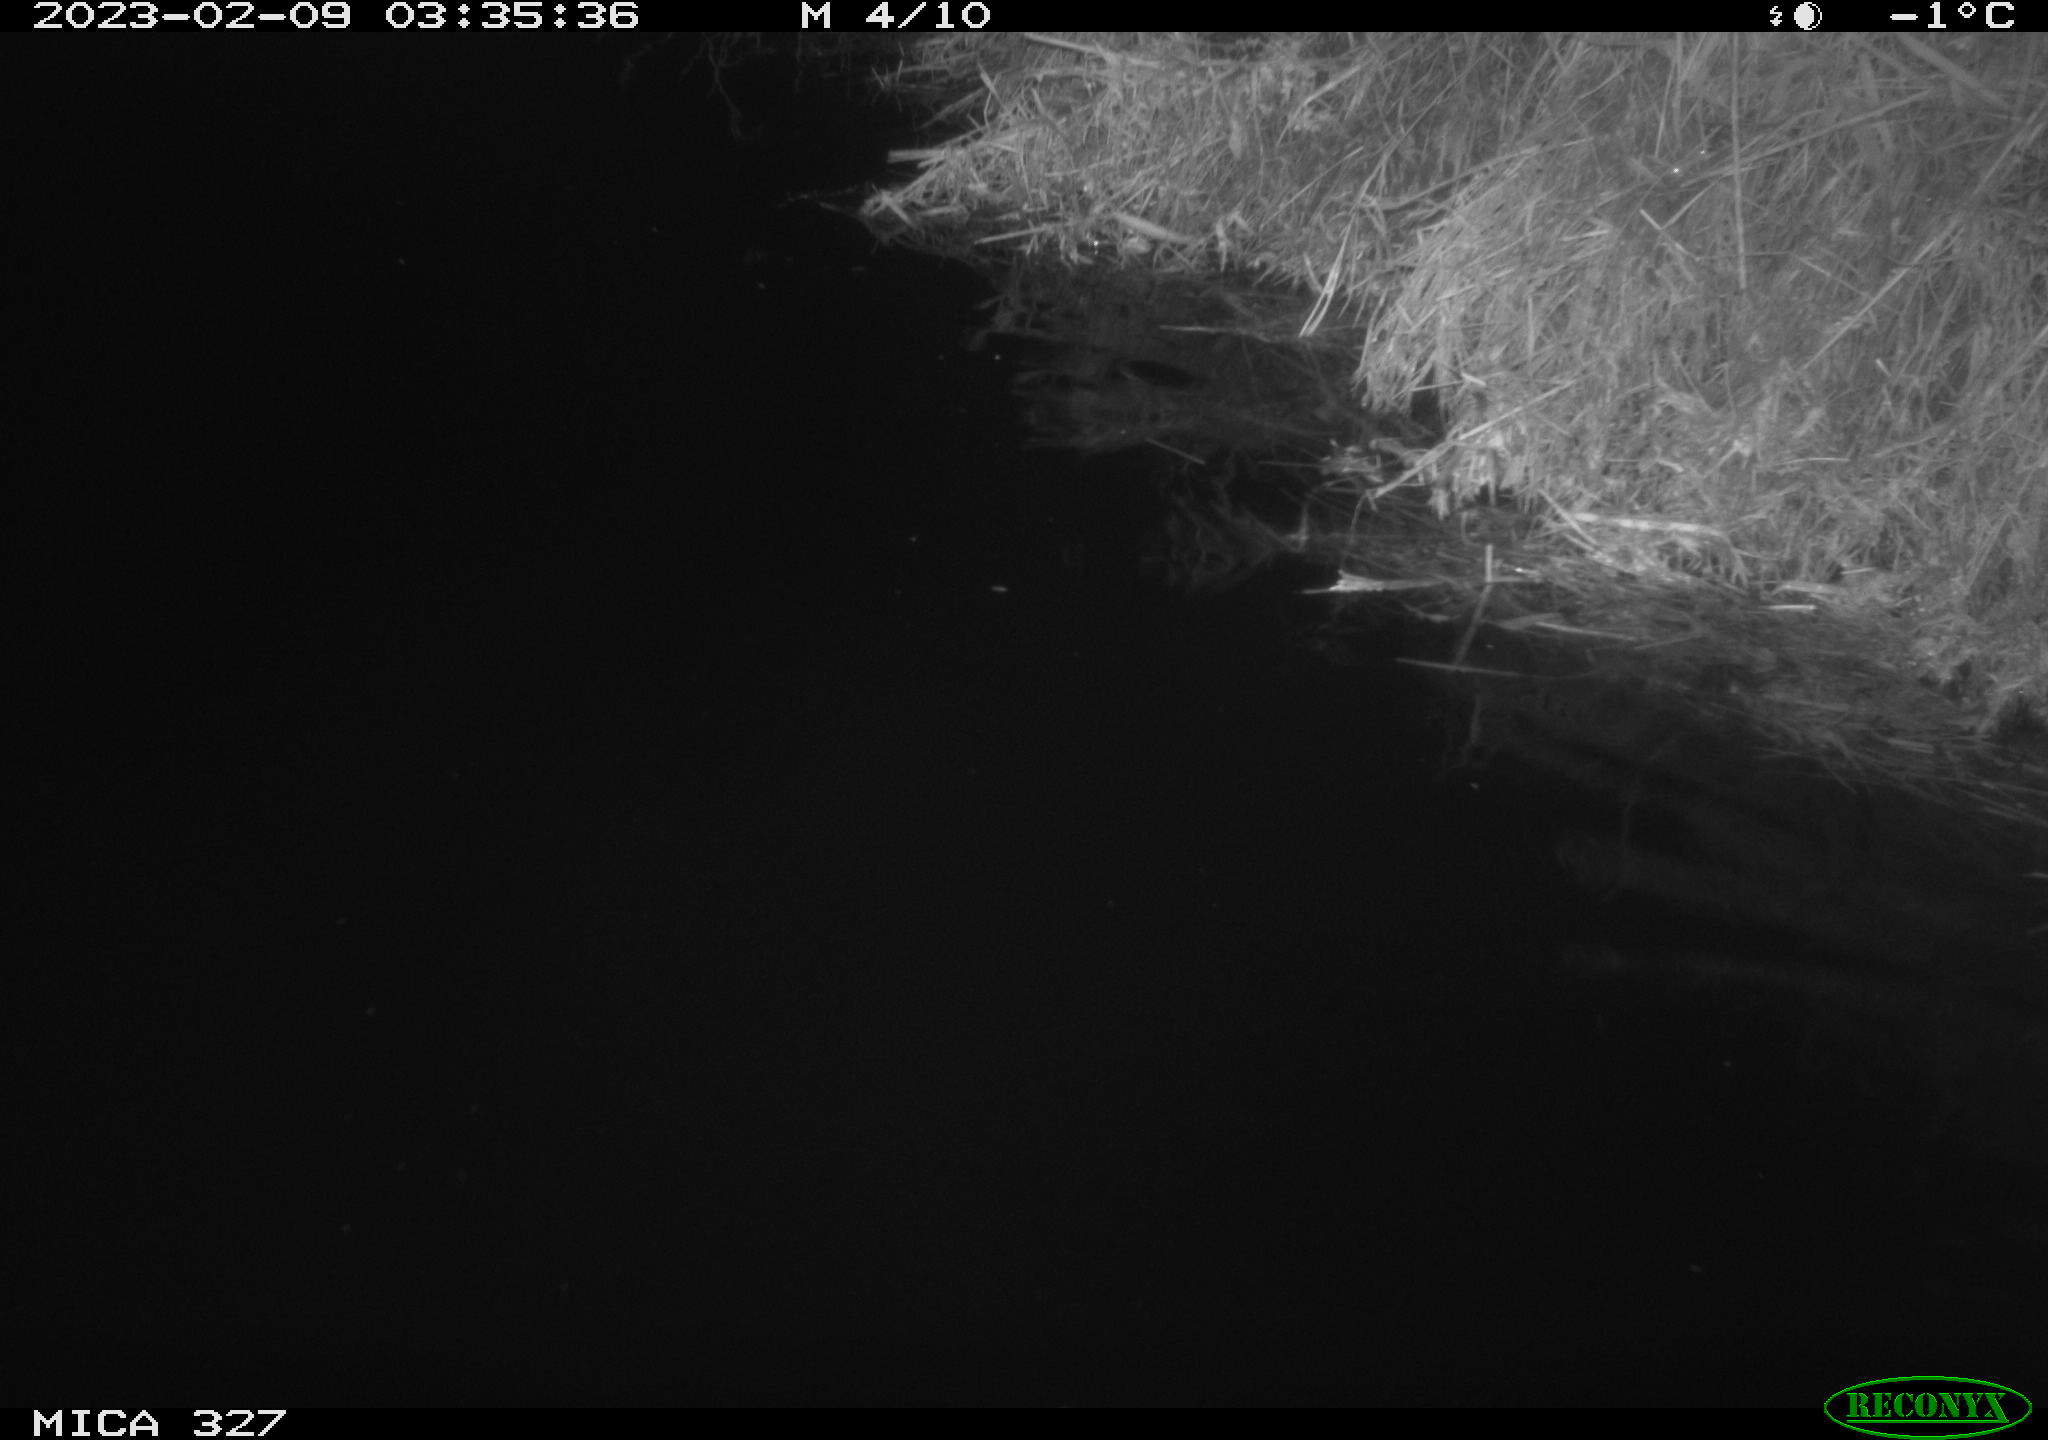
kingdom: Animalia
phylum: Chordata
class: Mammalia
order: Rodentia
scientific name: Rodentia
